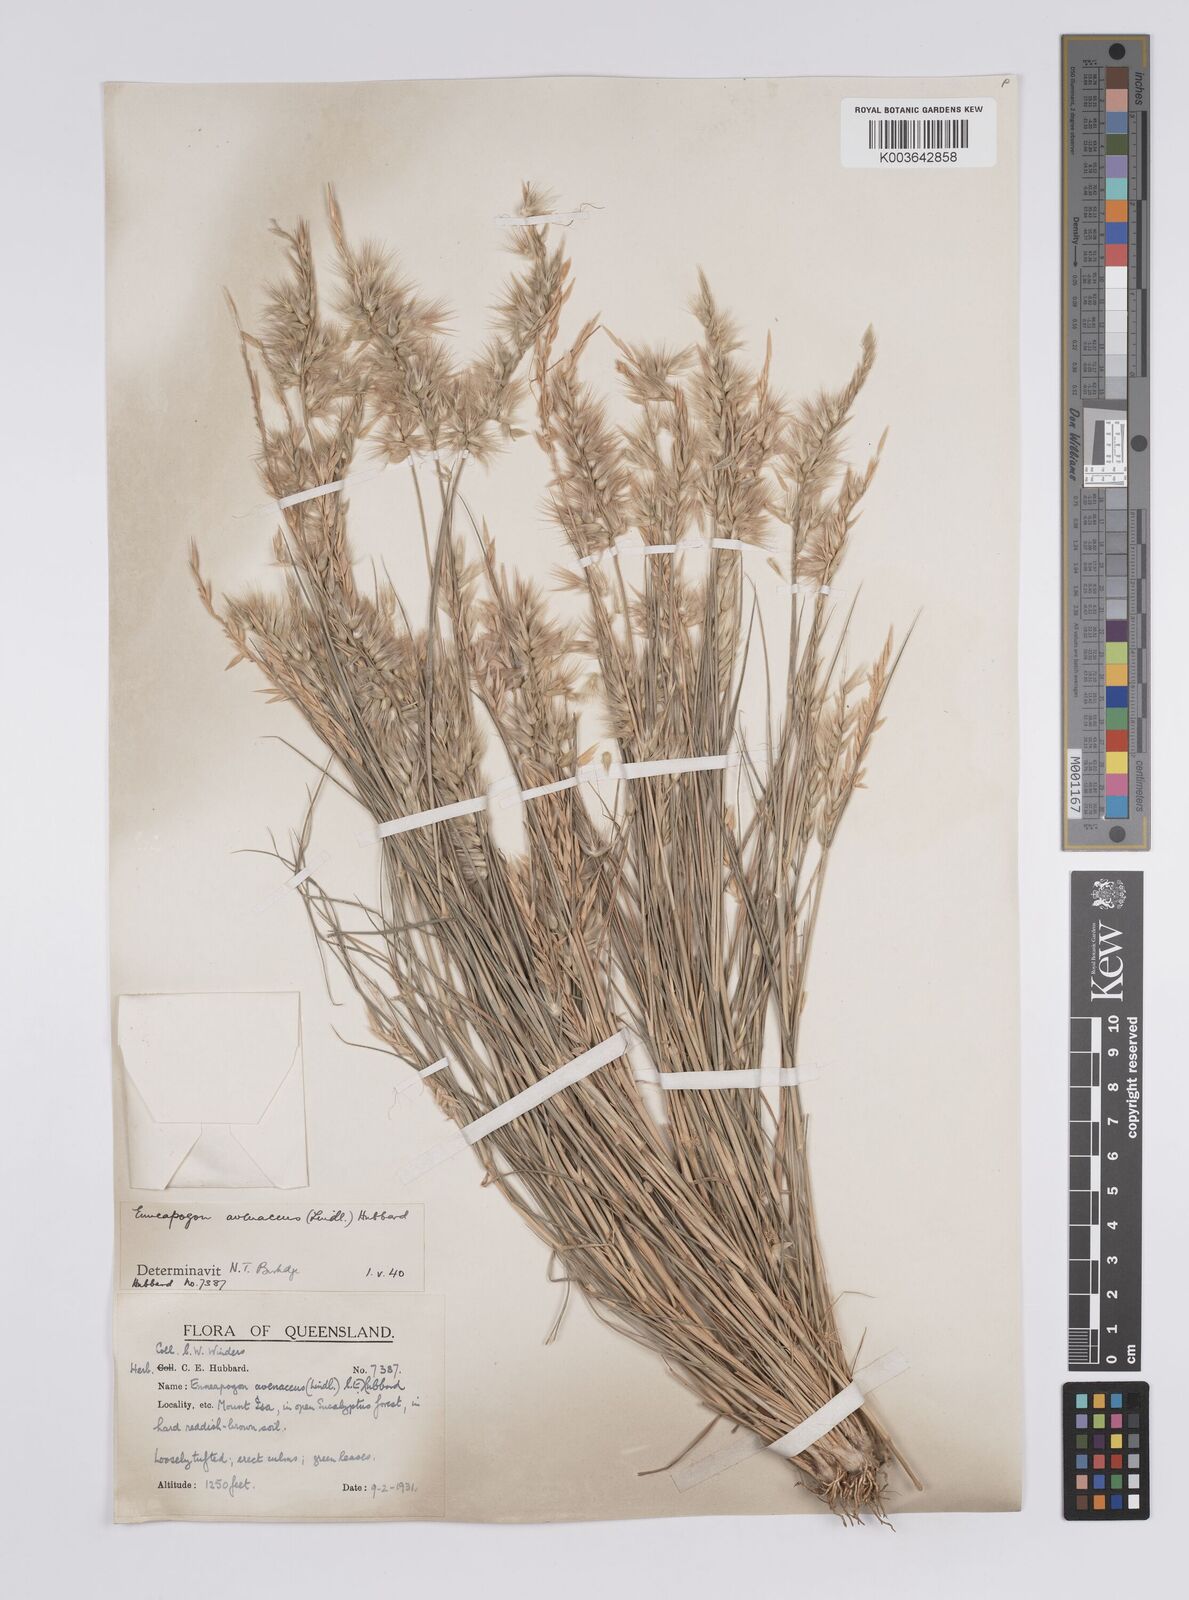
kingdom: Plantae
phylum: Tracheophyta
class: Liliopsida
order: Poales
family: Poaceae
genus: Enneapogon
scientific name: Enneapogon avenaceus
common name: Hairy oat grass
